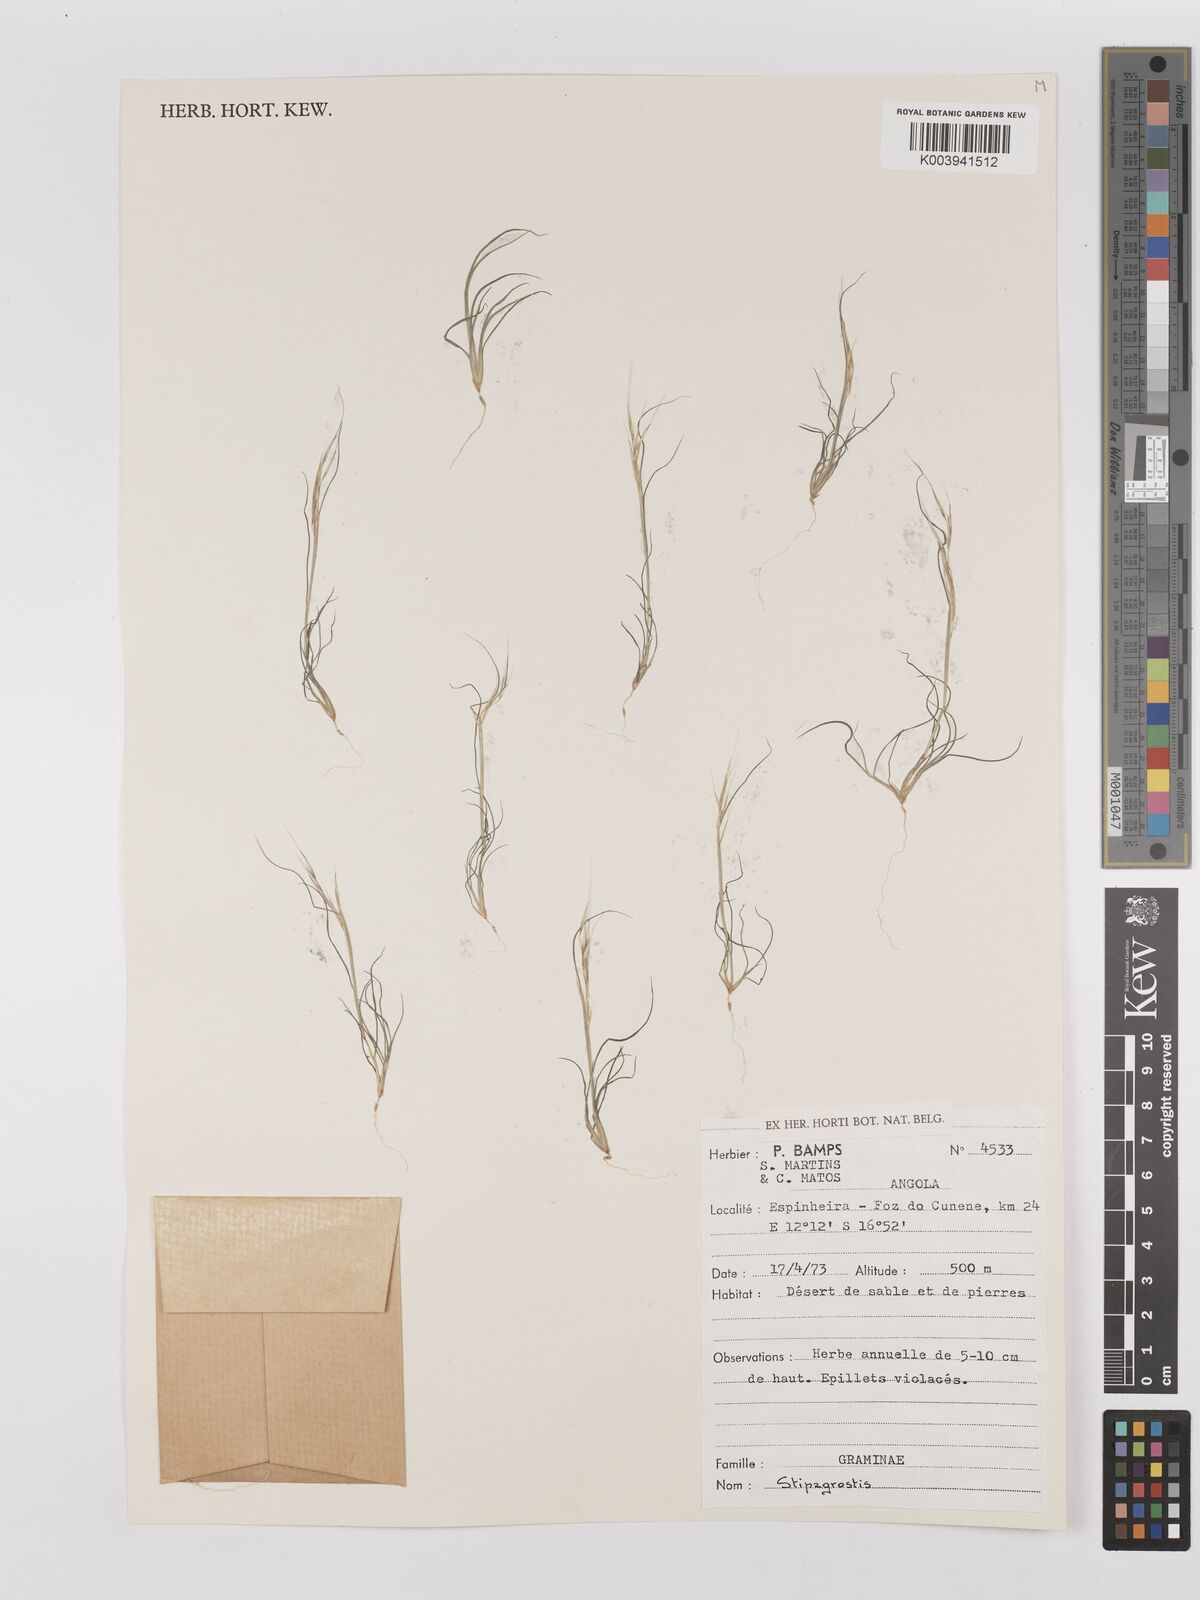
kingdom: Plantae
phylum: Tracheophyta
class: Liliopsida
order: Poales
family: Poaceae
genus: Stipagrostis
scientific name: Stipagrostis
